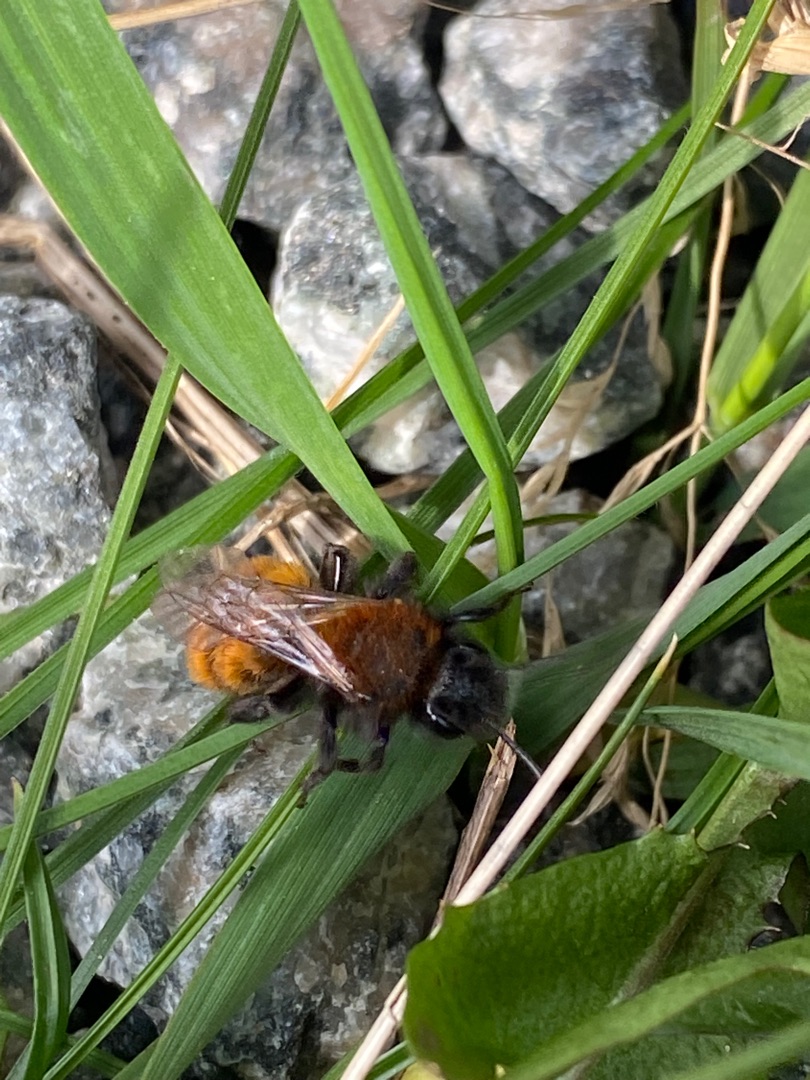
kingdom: Animalia
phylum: Arthropoda
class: Insecta
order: Hymenoptera
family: Andrenidae
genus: Andrena
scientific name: Andrena fulva
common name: Rødpelset jordbi
